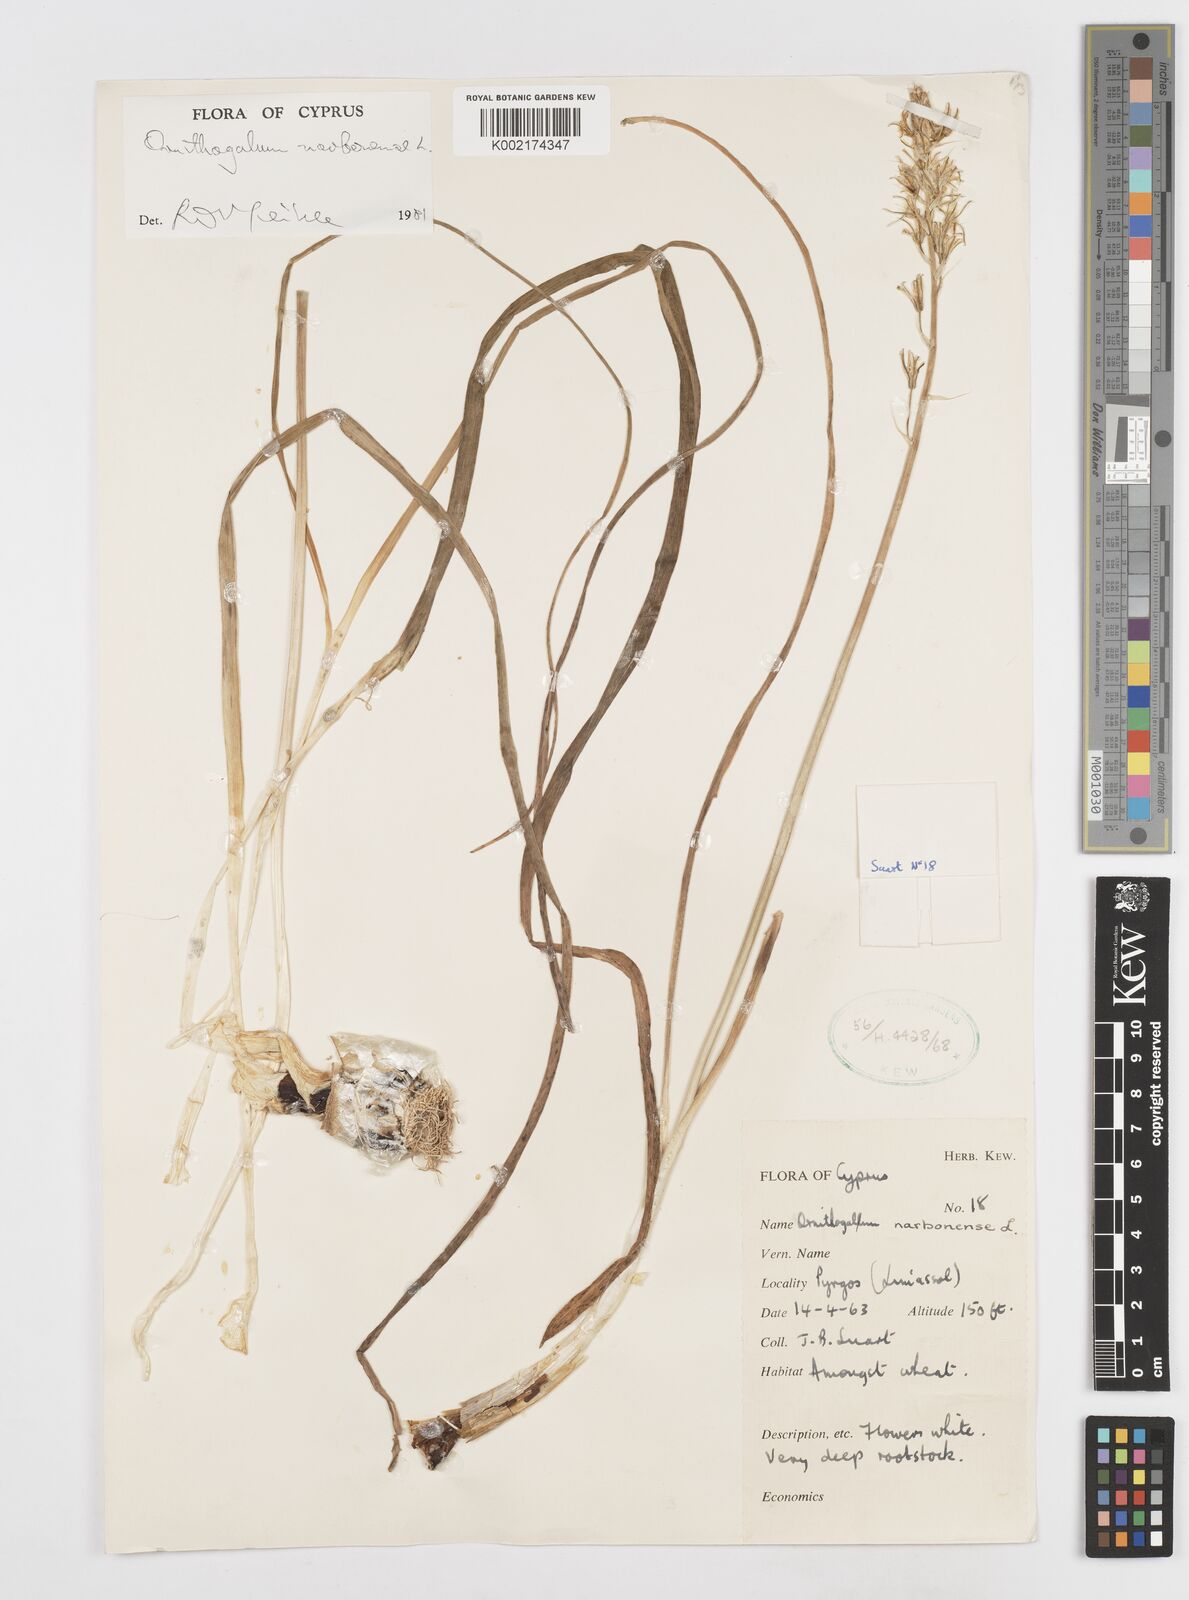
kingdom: Plantae
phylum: Tracheophyta
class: Liliopsida
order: Asparagales
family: Asparagaceae
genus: Ornithogalum
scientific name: Ornithogalum narbonense
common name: Bath-asparagus
